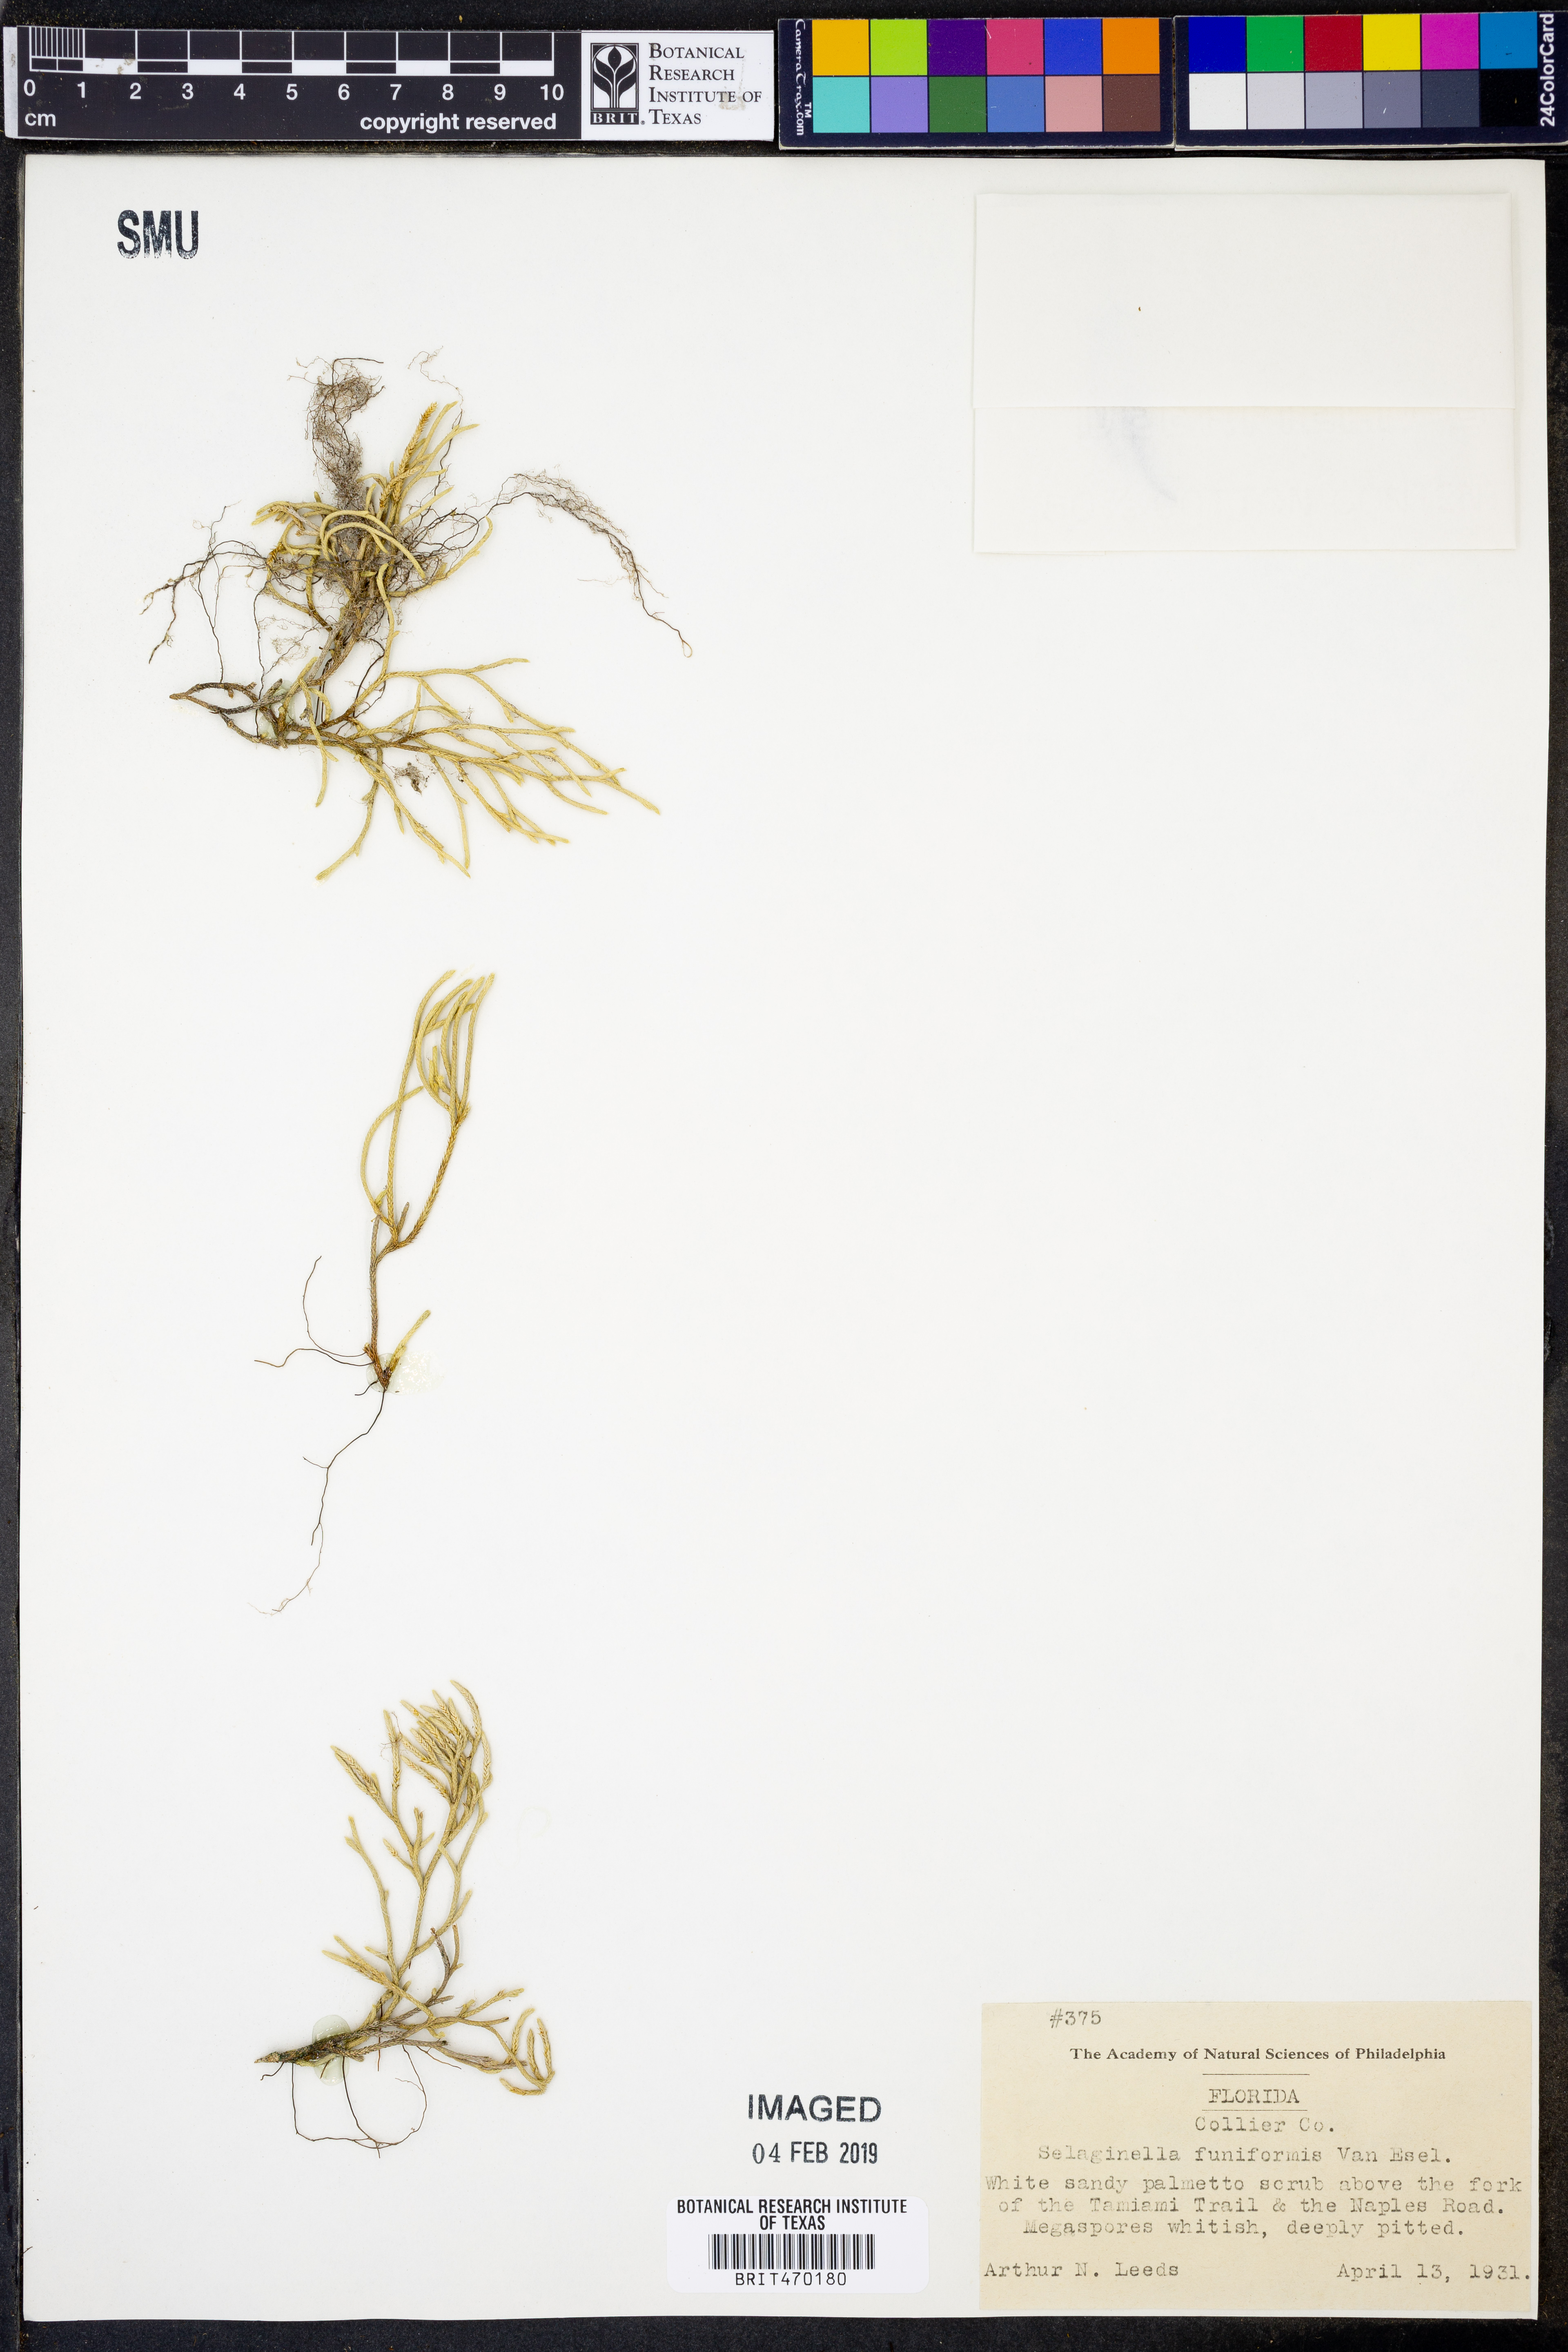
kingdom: Plantae
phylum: Tracheophyta
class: Lycopodiopsida
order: Selaginellales
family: Selaginellaceae
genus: Selaginella
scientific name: Selaginella acanthonota
